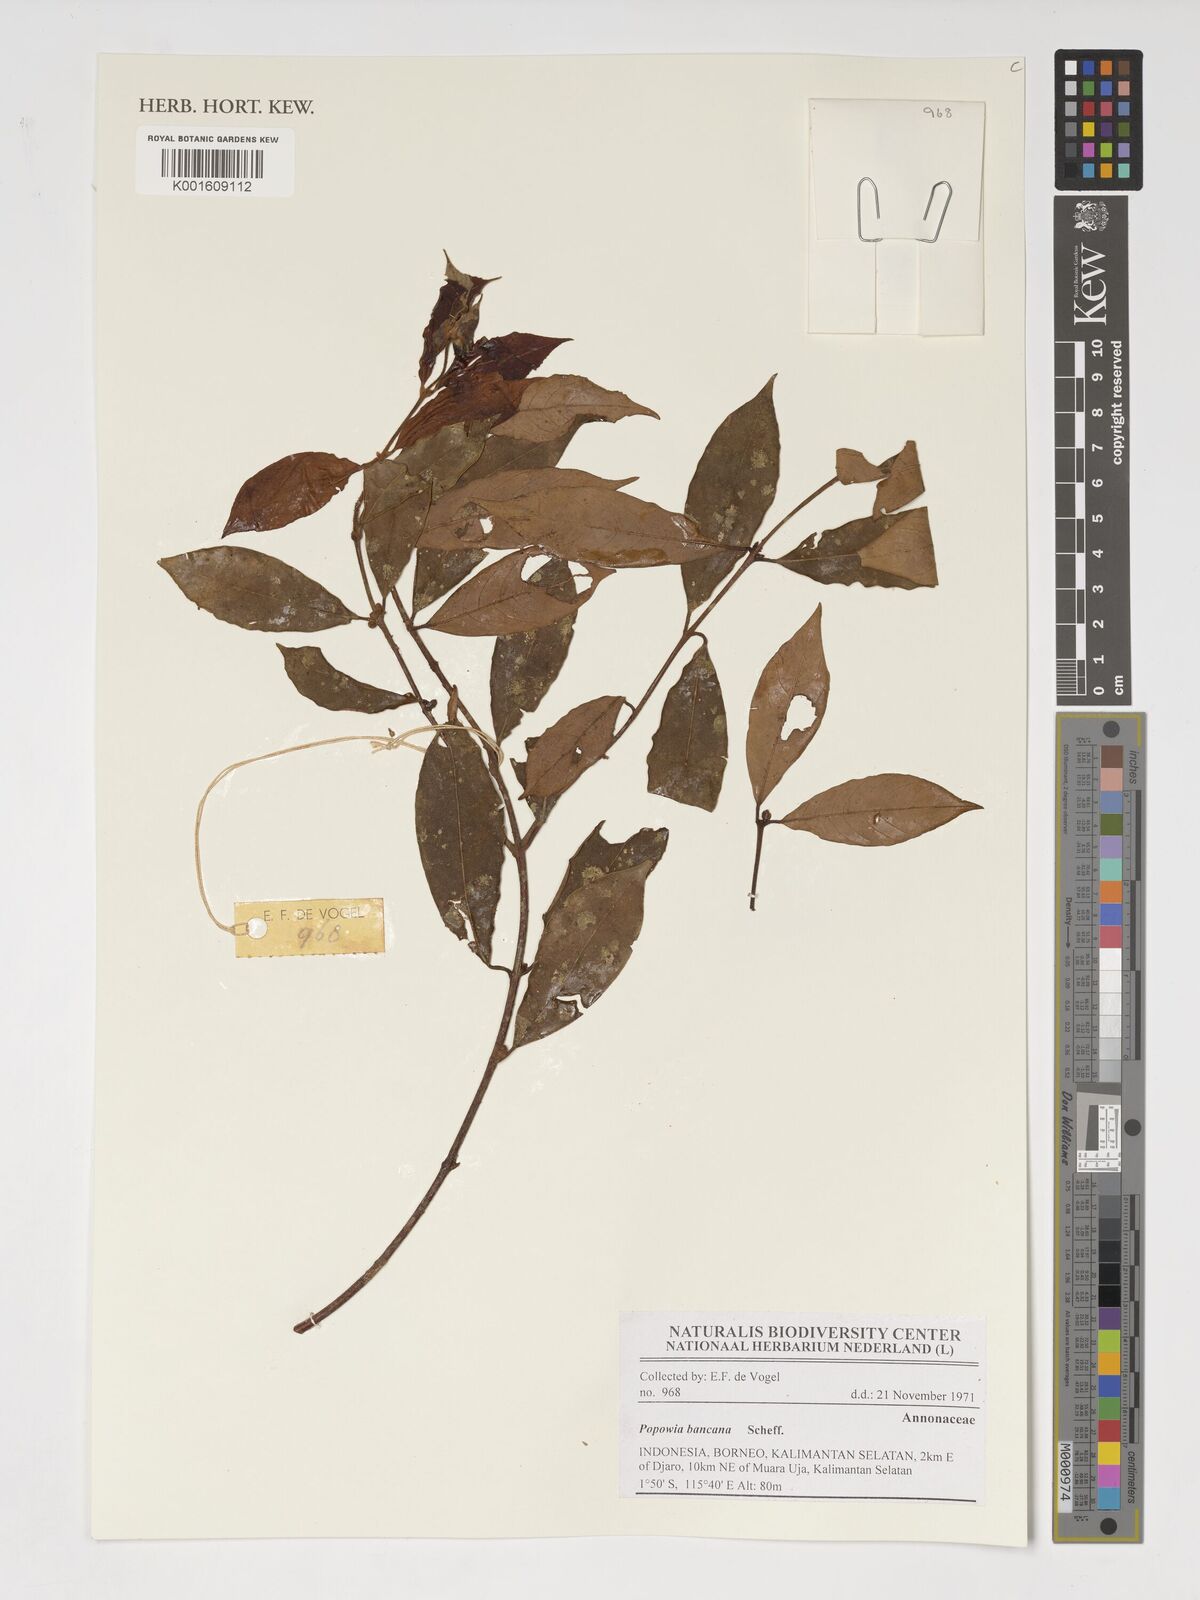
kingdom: Plantae
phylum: Tracheophyta
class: Magnoliopsida
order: Magnoliales
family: Annonaceae
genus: Popowia
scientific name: Popowia bancana
